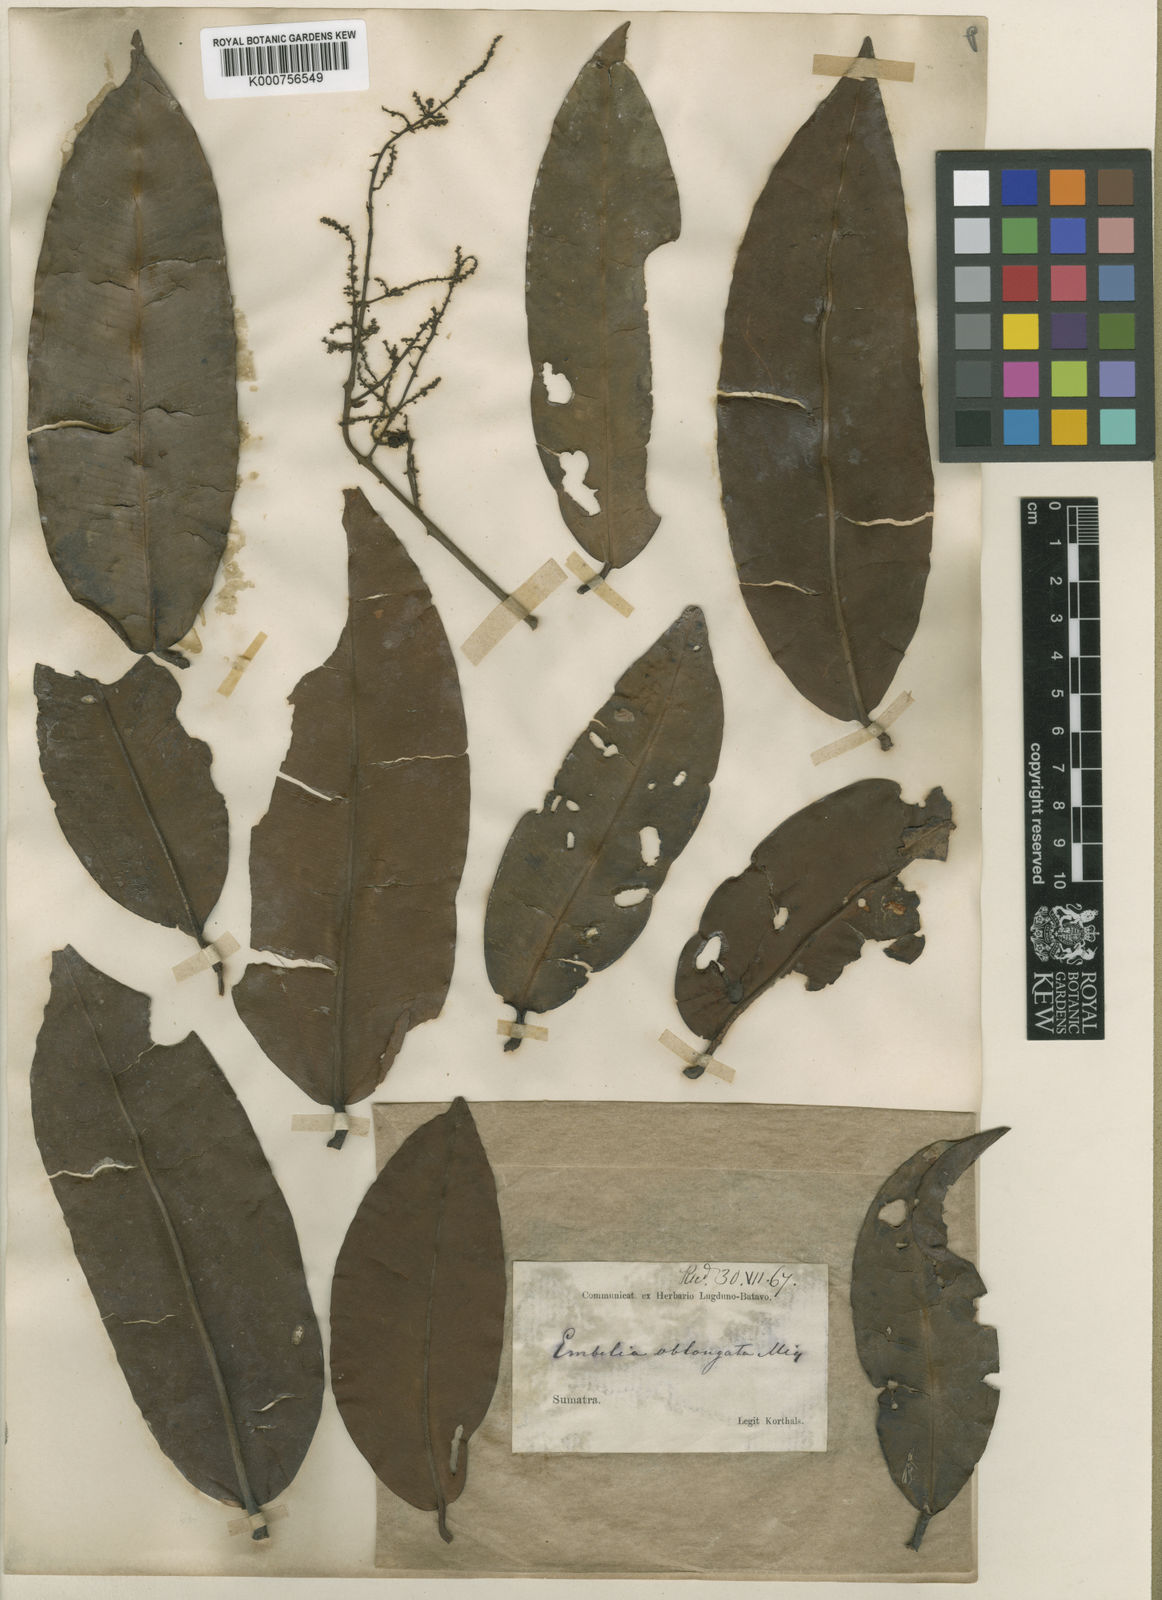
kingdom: Plantae
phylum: Tracheophyta
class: Magnoliopsida
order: Ericales
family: Primulaceae
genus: Embelia
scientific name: Embelia
